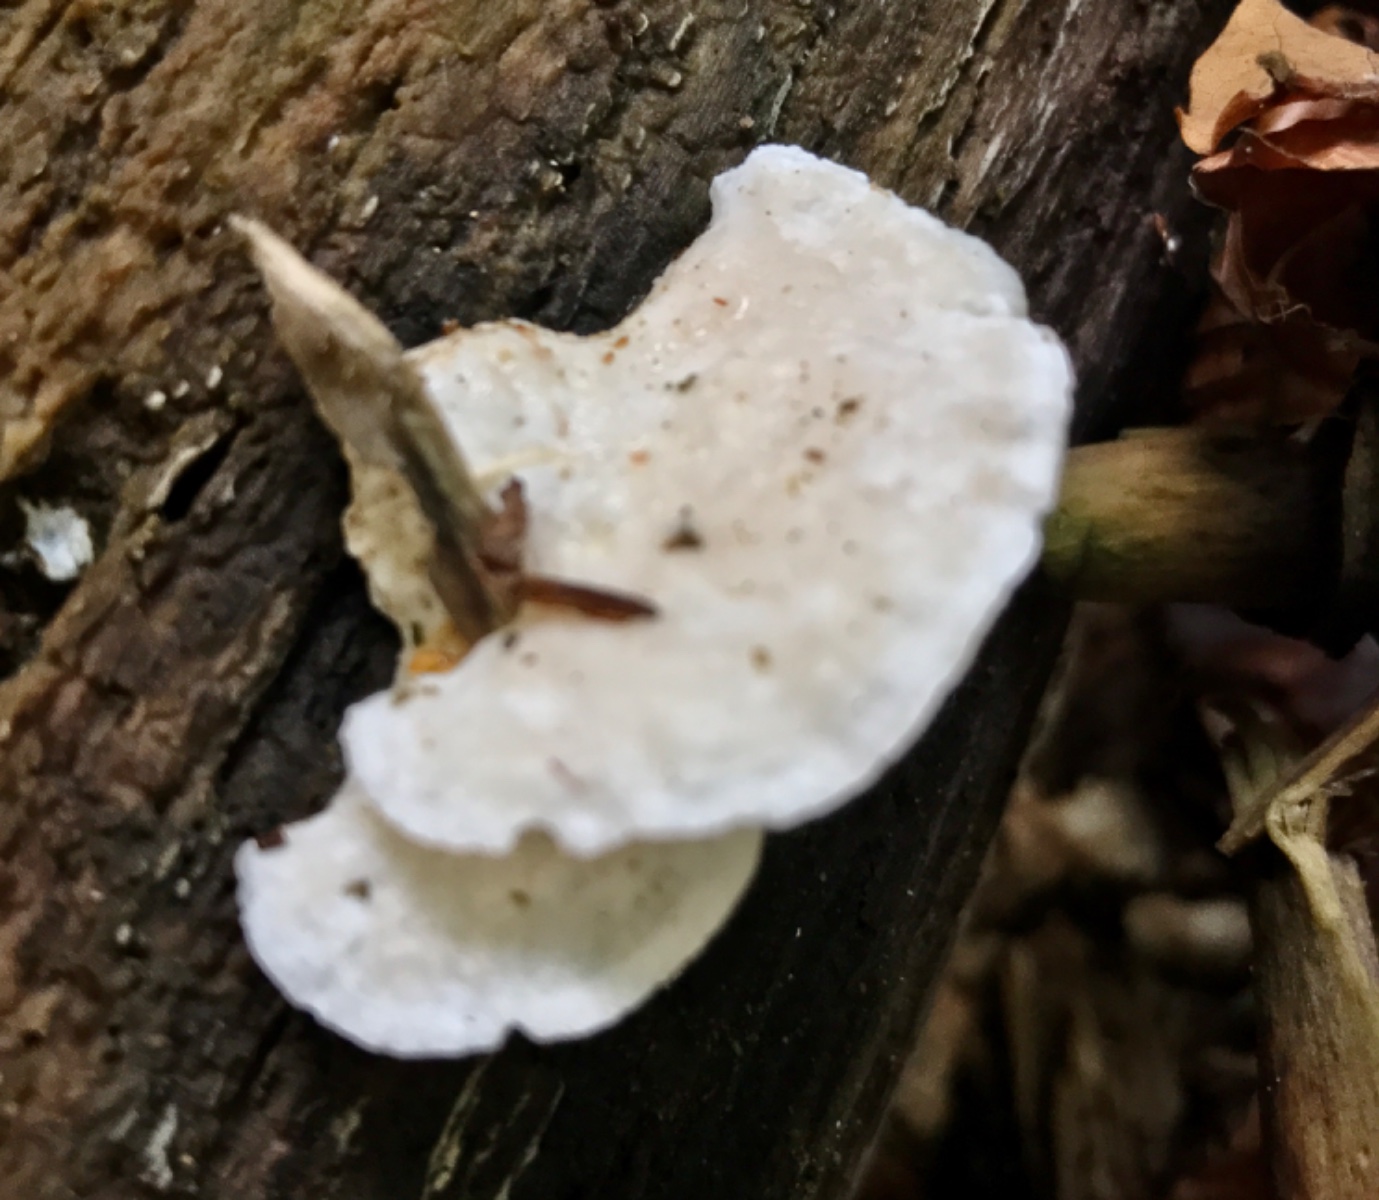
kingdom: Fungi
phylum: Basidiomycota
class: Agaricomycetes
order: Polyporales
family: Incrustoporiaceae
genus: Tyromyces
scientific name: Tyromyces lacteus
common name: mælkehvid kødporesvamp
